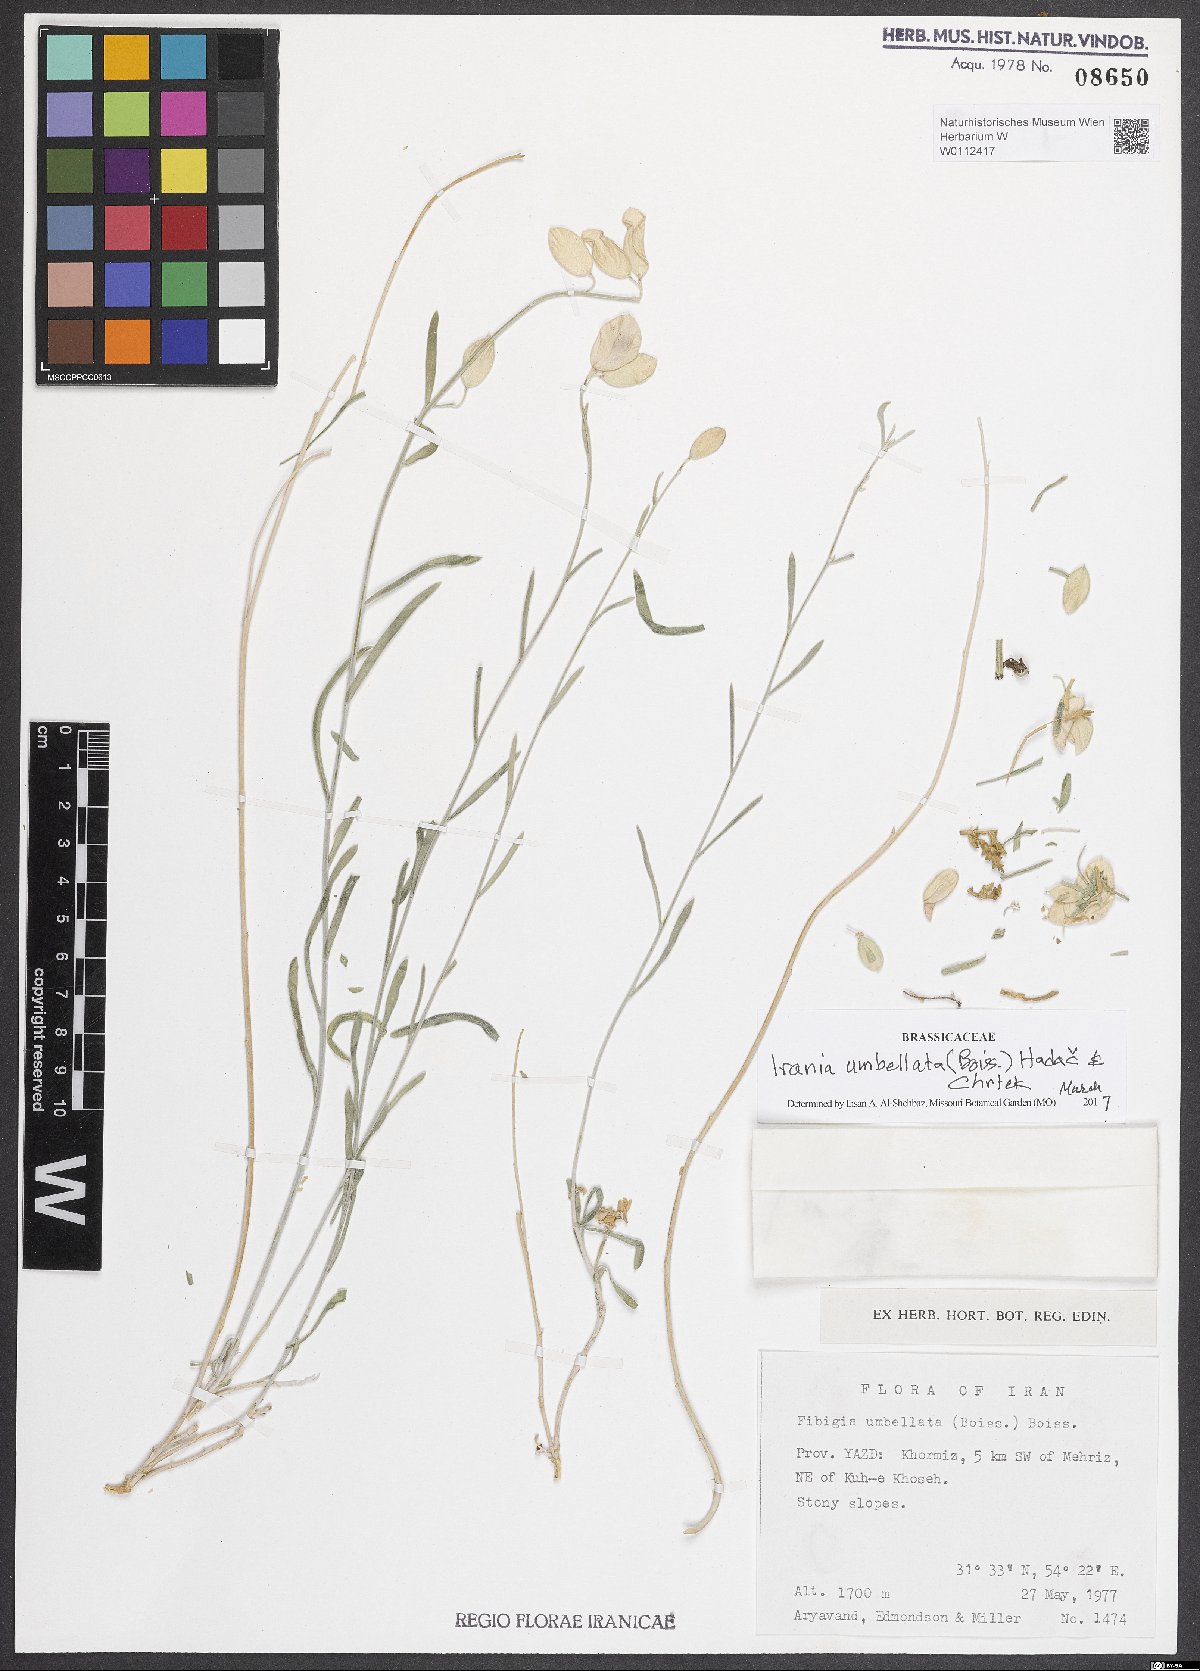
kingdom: Plantae
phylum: Tracheophyta
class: Magnoliopsida
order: Brassicales
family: Brassicaceae
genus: Irania
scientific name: Irania umbellata
